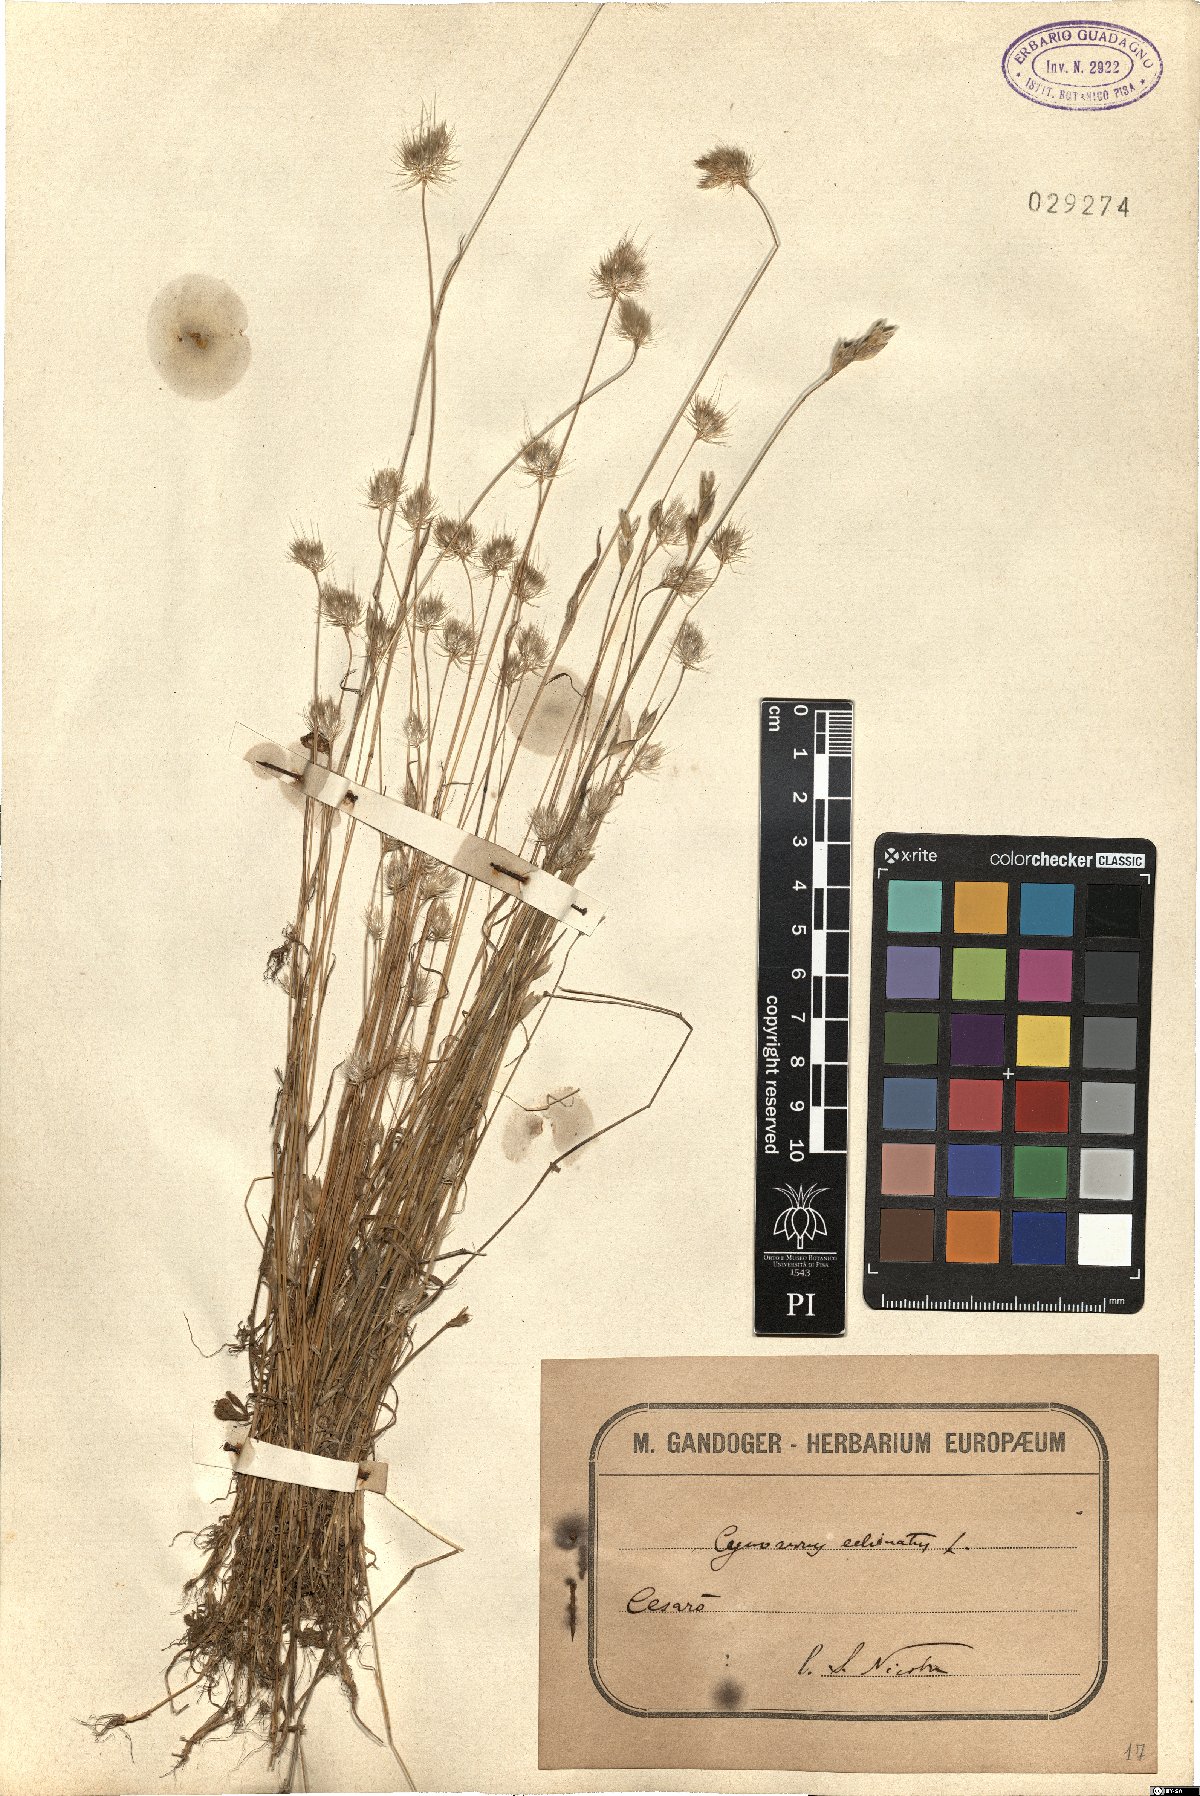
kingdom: Plantae
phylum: Tracheophyta
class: Liliopsida
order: Poales
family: Poaceae
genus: Cynosurus
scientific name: Cynosurus echinatus
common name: Rough dog's-tail
